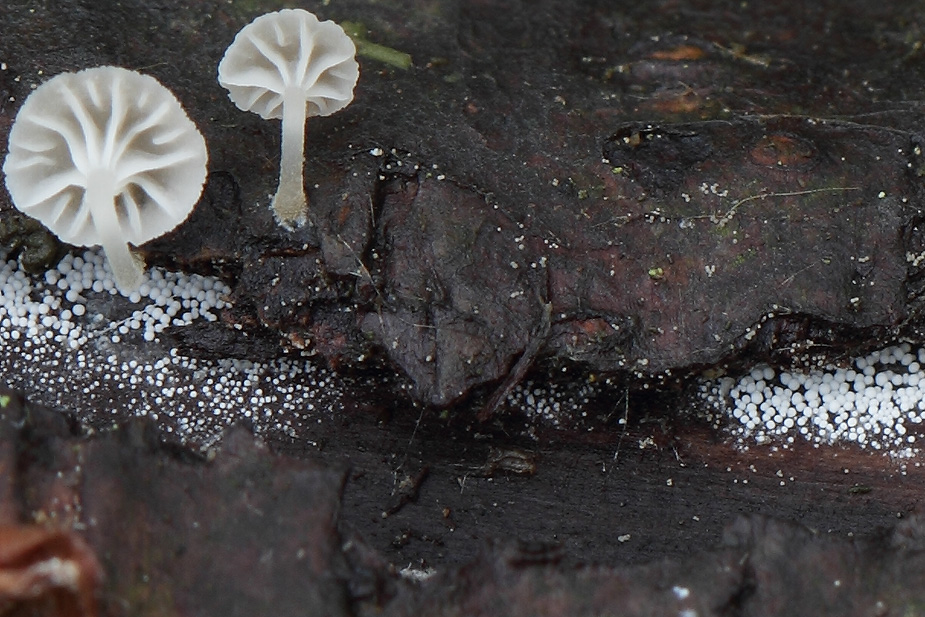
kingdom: Fungi
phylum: Basidiomycota
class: Agaricomycetes
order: Polyporales
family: Meruliaceae
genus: Bulbillomyces
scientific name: Bulbillomyces farinosus
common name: æg-kalkskind
